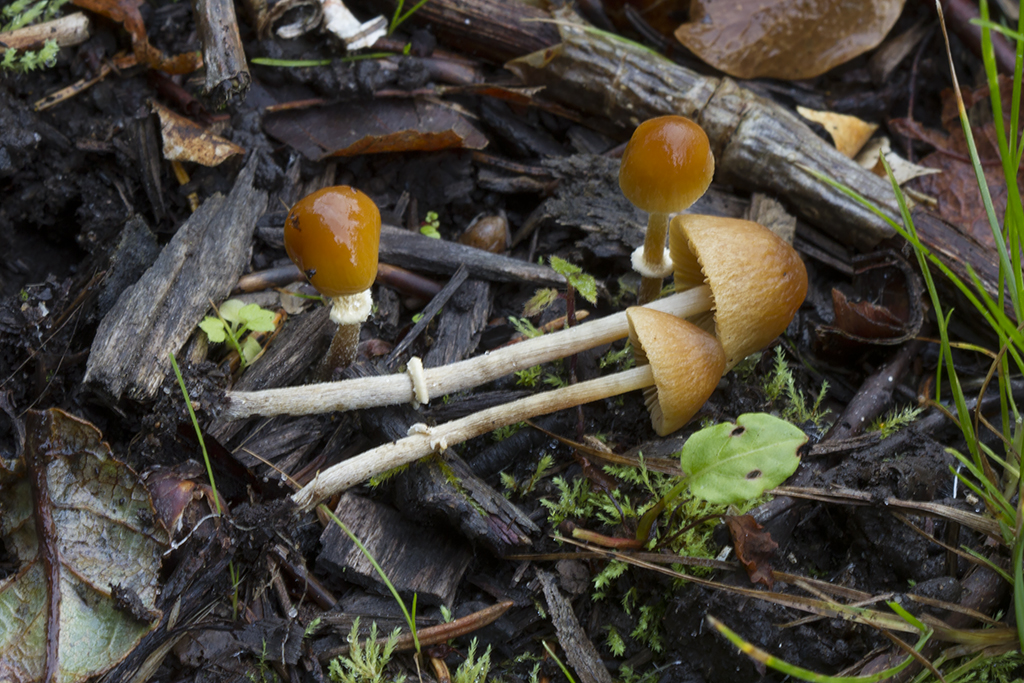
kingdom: Fungi
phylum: Basidiomycota
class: Agaricomycetes
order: Agaricales
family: Bolbitiaceae
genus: Pholiotina
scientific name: Pholiotina teneroides
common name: tosporet dansehat
